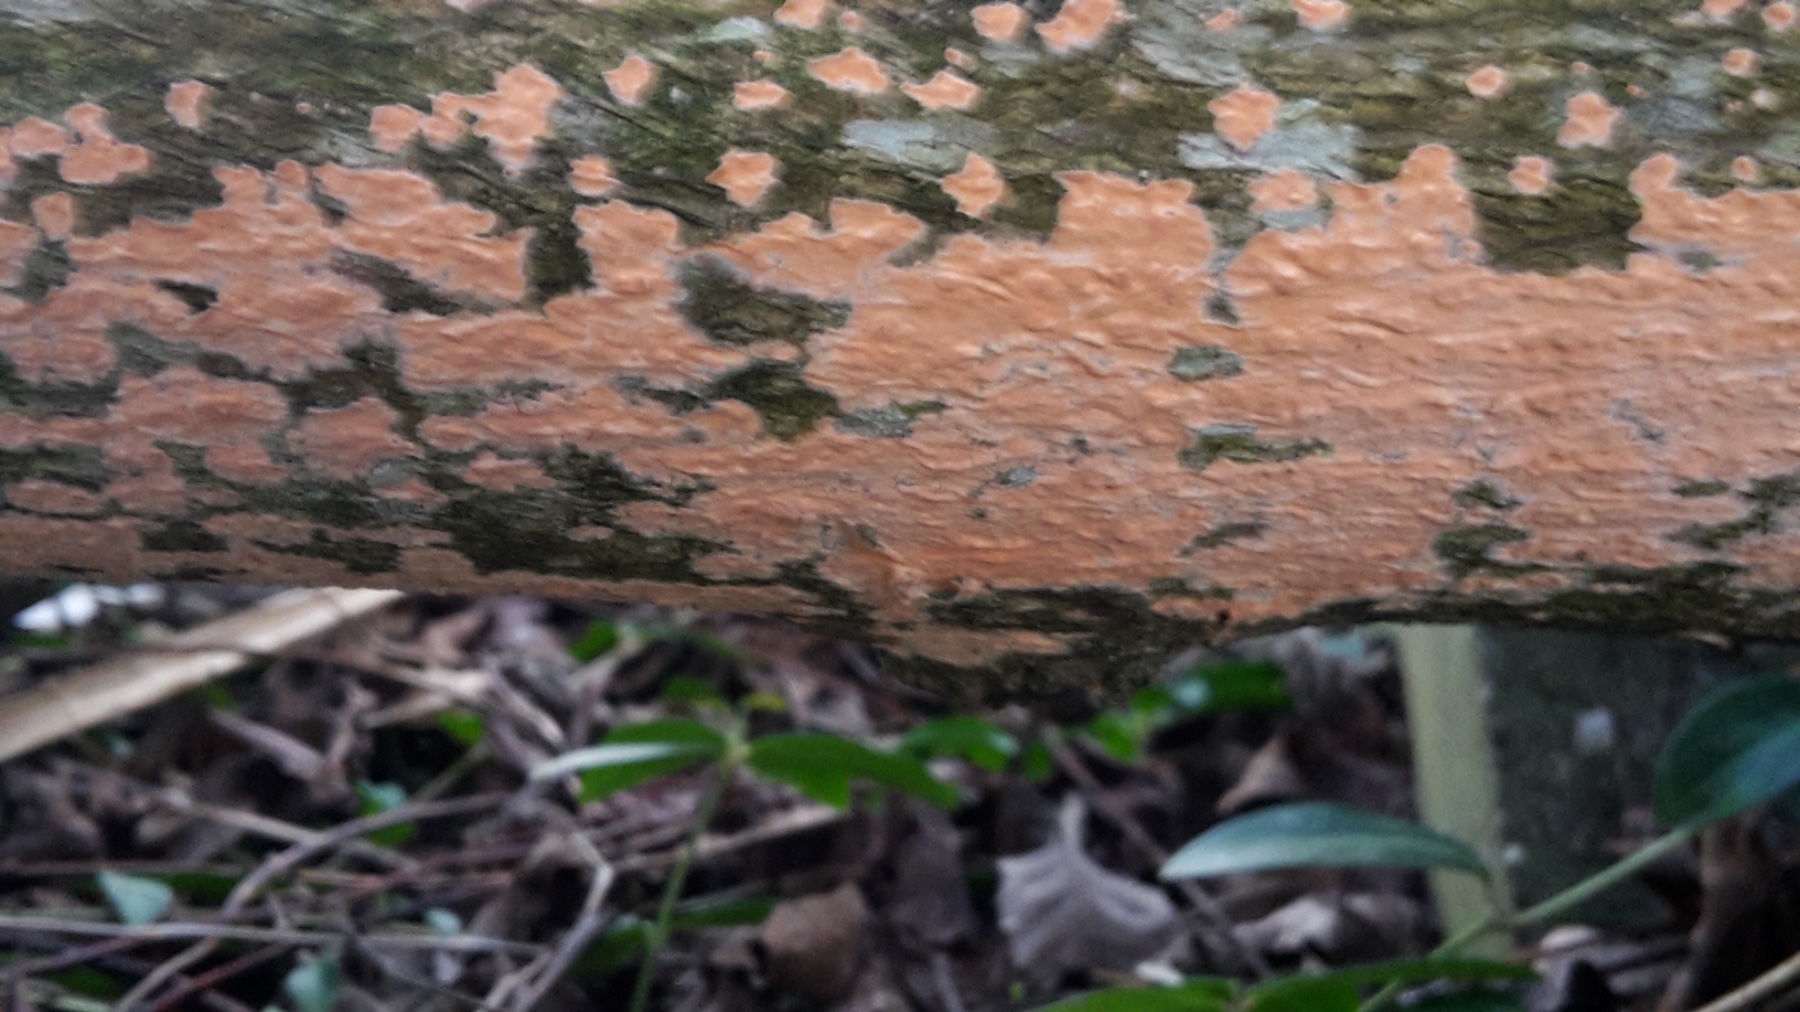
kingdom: Fungi
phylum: Basidiomycota
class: Agaricomycetes
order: Russulales
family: Peniophoraceae
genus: Peniophora
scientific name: Peniophora incarnata
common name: laksefarvet voksskind
